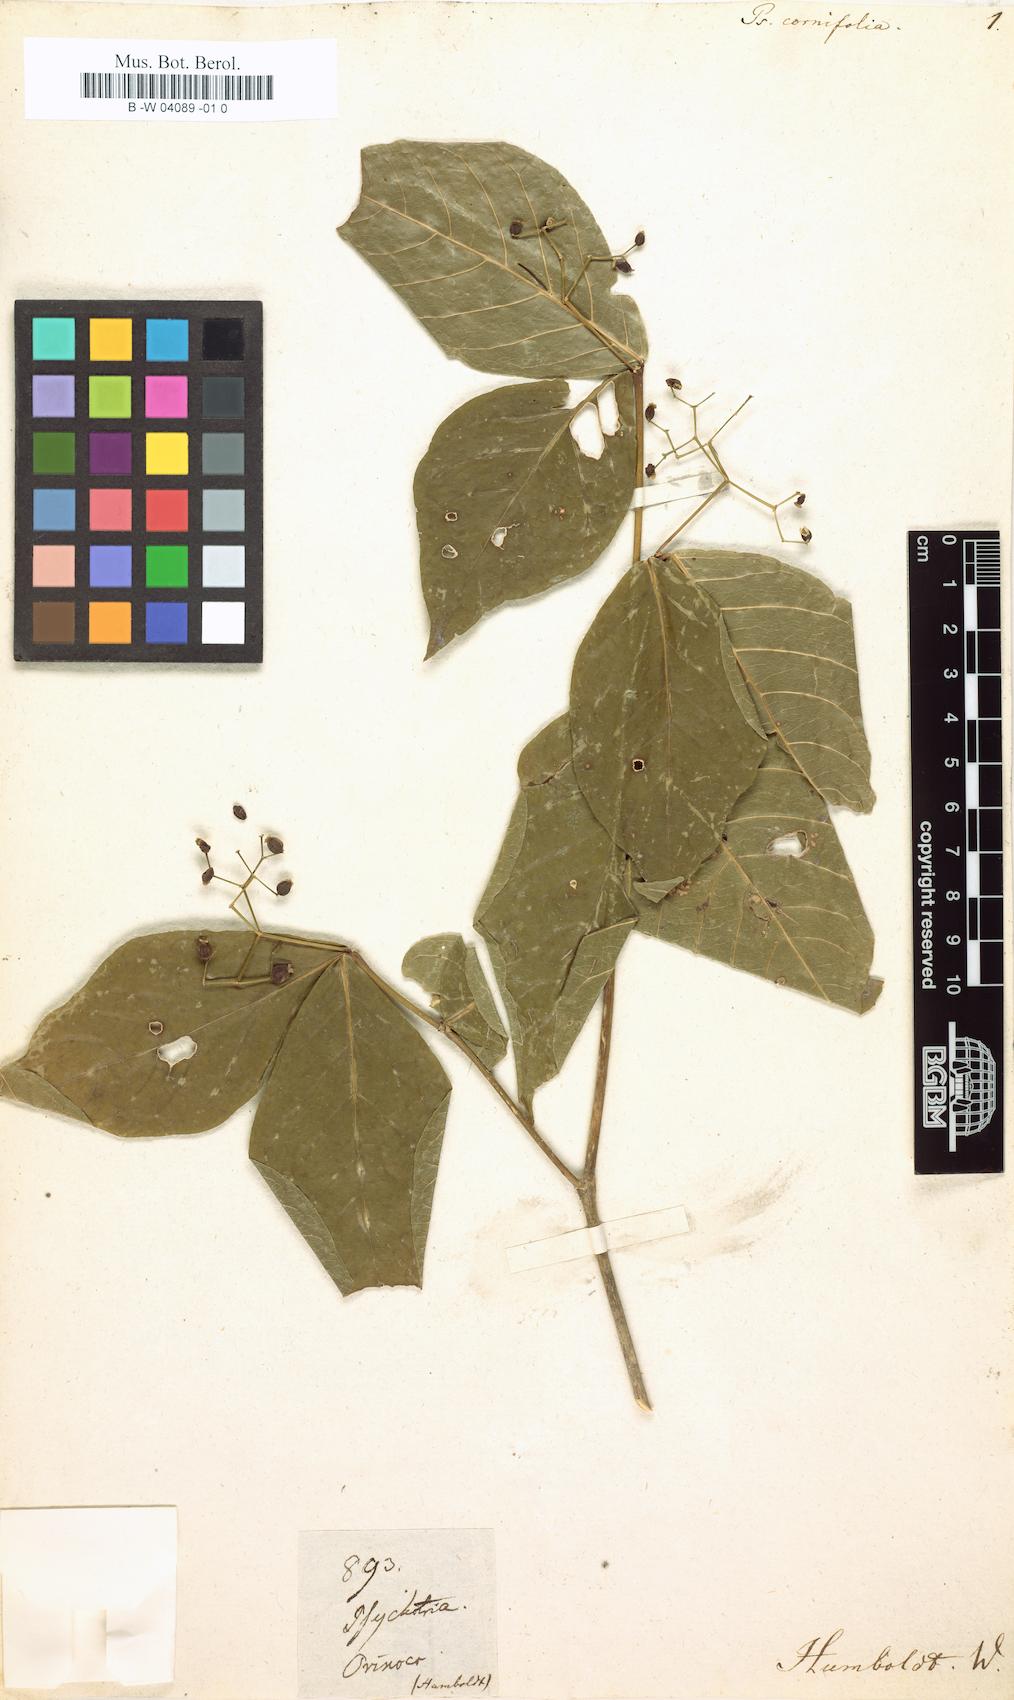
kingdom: Plantae
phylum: Tracheophyta
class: Magnoliopsida
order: Gentianales
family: Rubiaceae
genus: Rudgea
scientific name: Rudgea cornifolia
